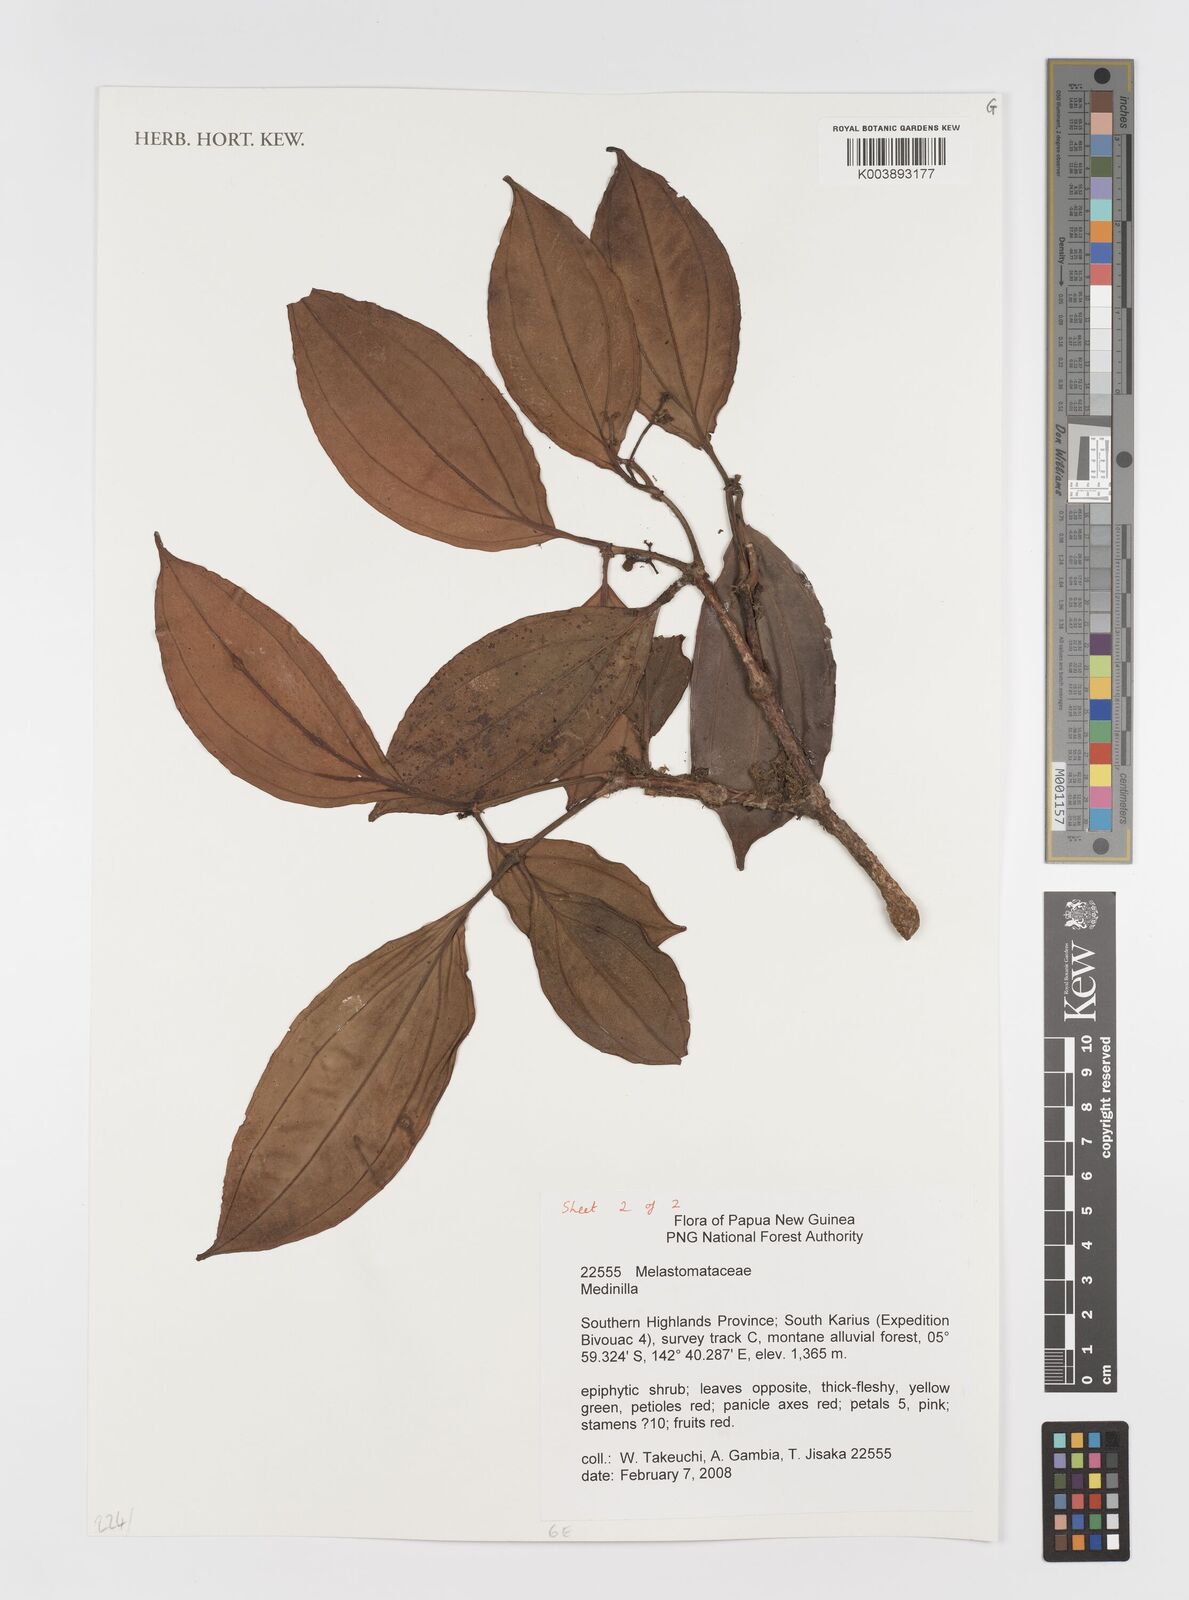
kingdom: Plantae
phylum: Tracheophyta
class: Magnoliopsida
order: Myrtales
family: Melastomataceae
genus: Medinilla
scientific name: Medinilla
